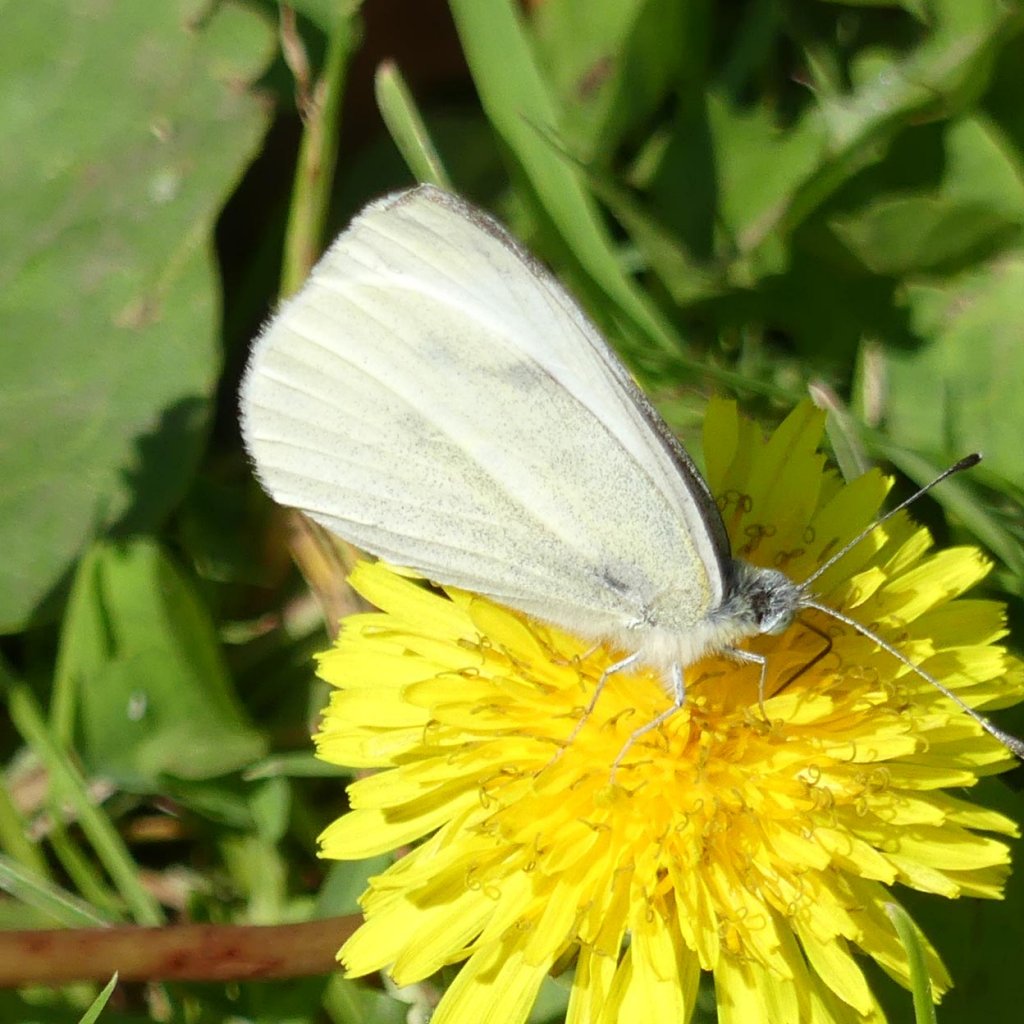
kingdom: Animalia
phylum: Arthropoda
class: Insecta
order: Lepidoptera
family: Pieridae
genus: Pieris
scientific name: Pieris rapae
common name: Cabbage White
